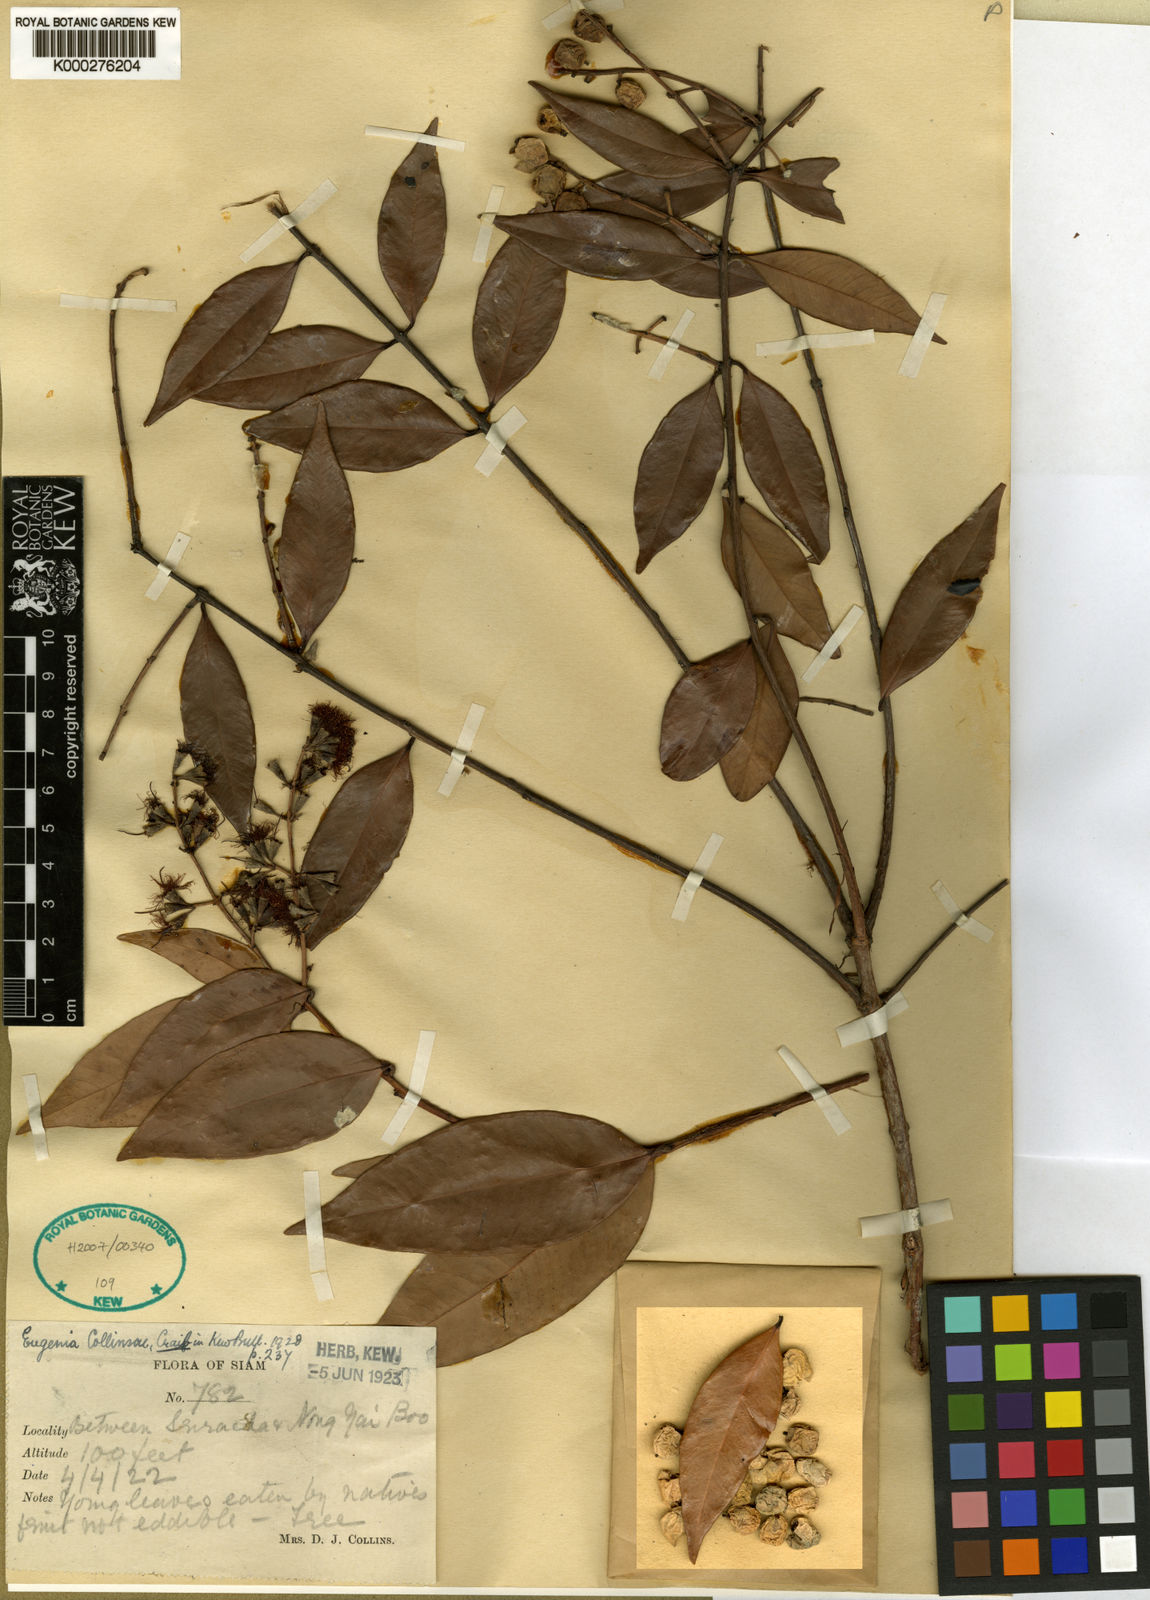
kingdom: Plantae
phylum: Tracheophyta
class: Magnoliopsida
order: Myrtales
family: Myrtaceae
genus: Syzygium
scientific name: Syzygium antisepticum
